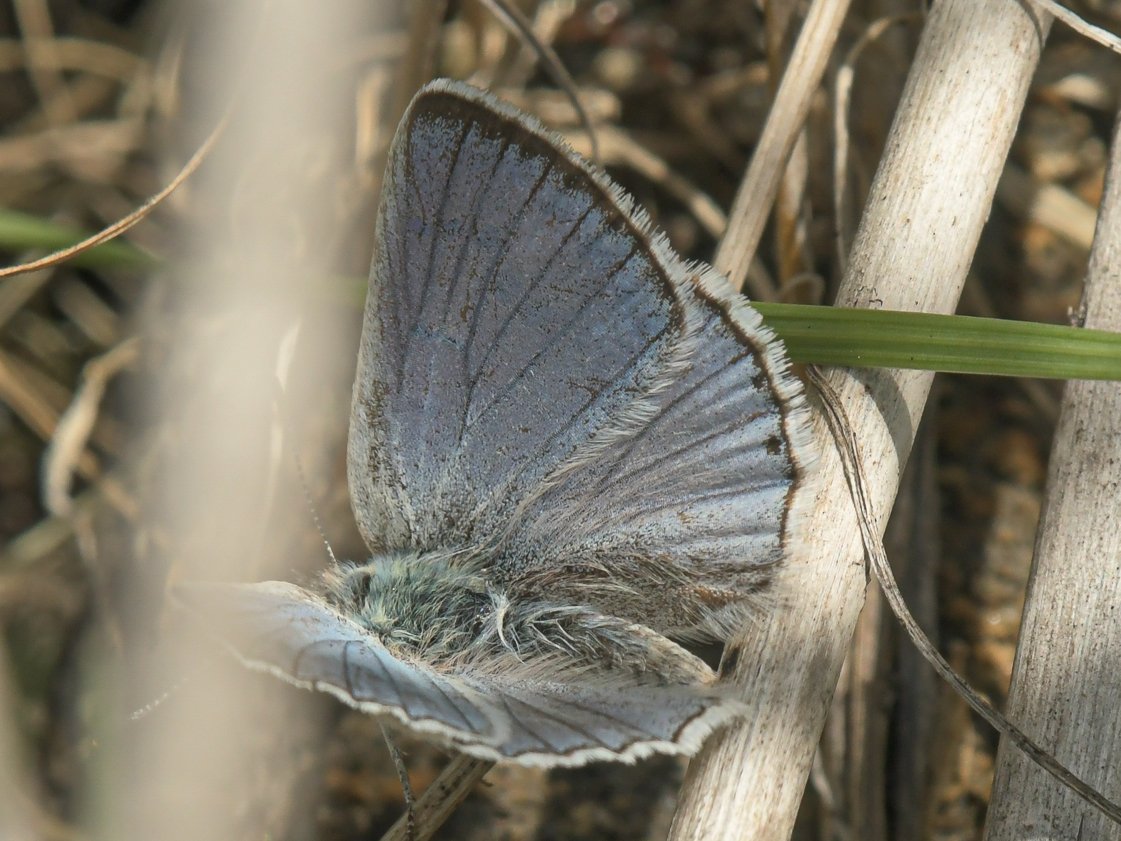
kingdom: Animalia
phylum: Arthropoda
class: Insecta
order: Lepidoptera
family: Lycaenidae
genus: Lycaena
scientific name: Lycaena heteronea
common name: Blue Copper
